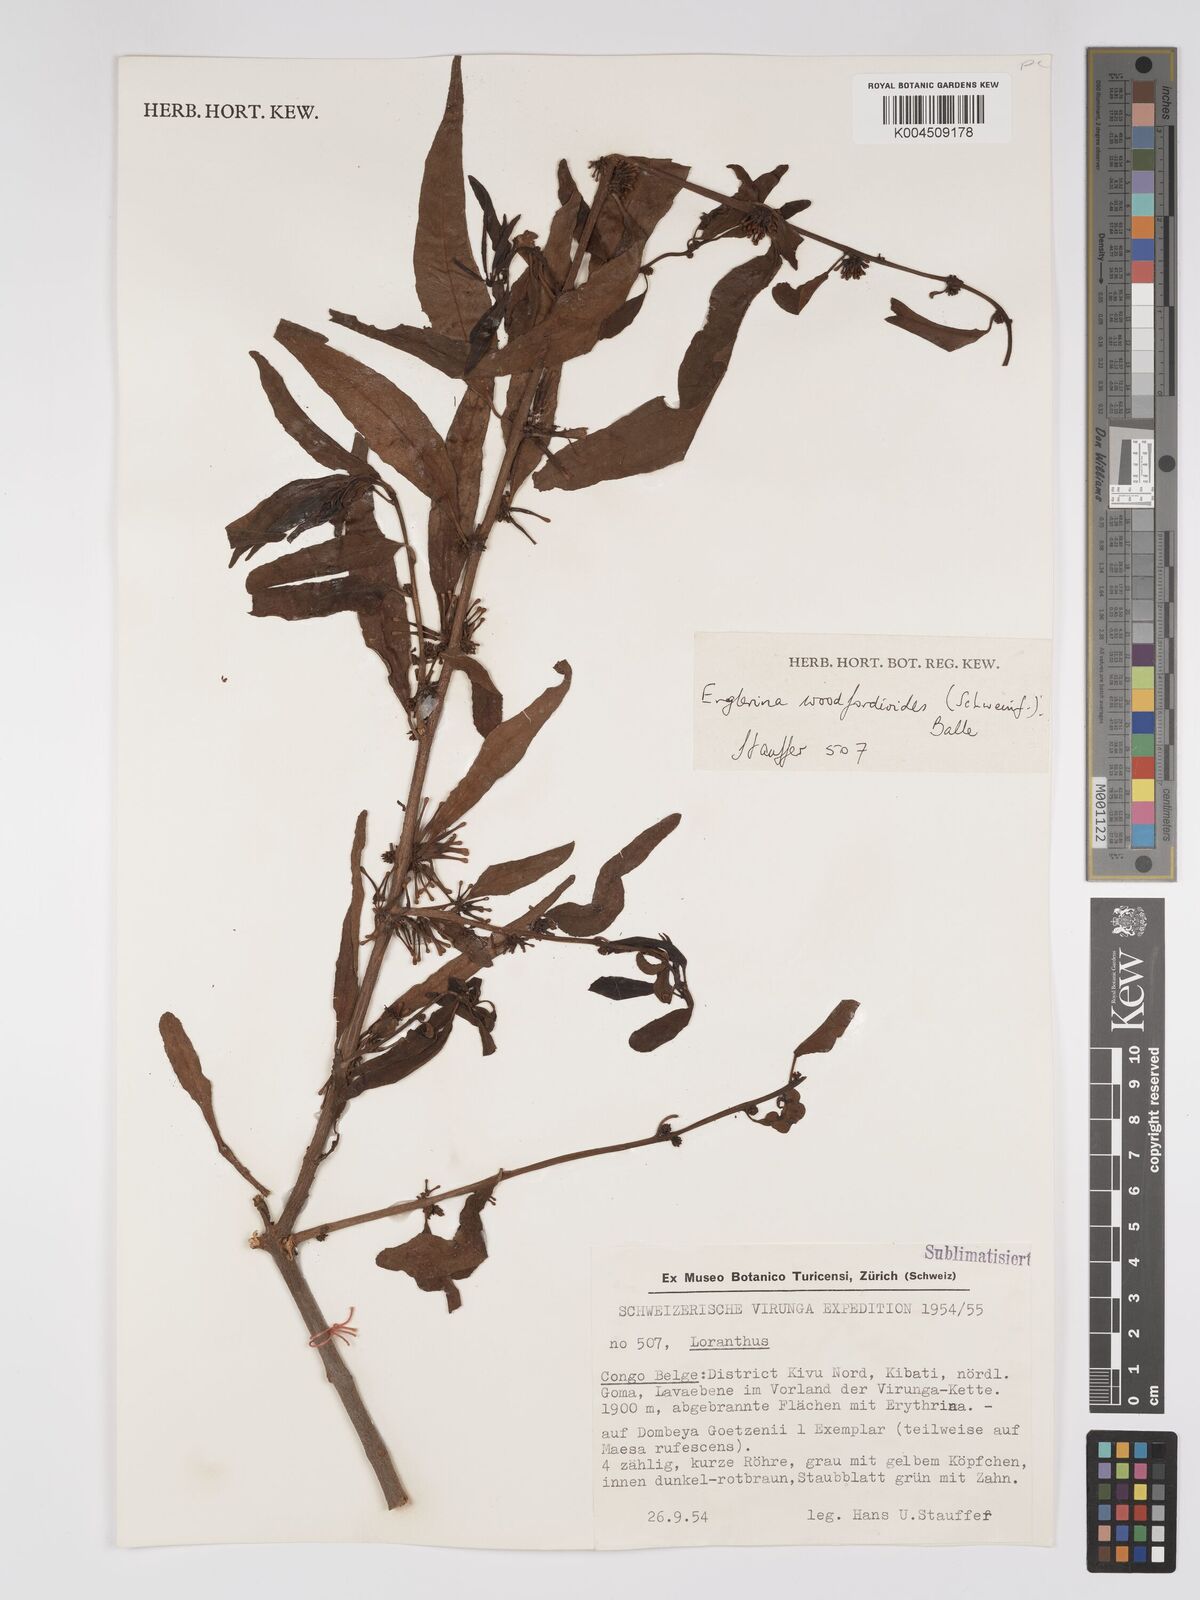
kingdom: Plantae
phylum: Tracheophyta
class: Magnoliopsida
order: Santalales
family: Loranthaceae
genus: Englerina
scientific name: Englerina woodfordioides
